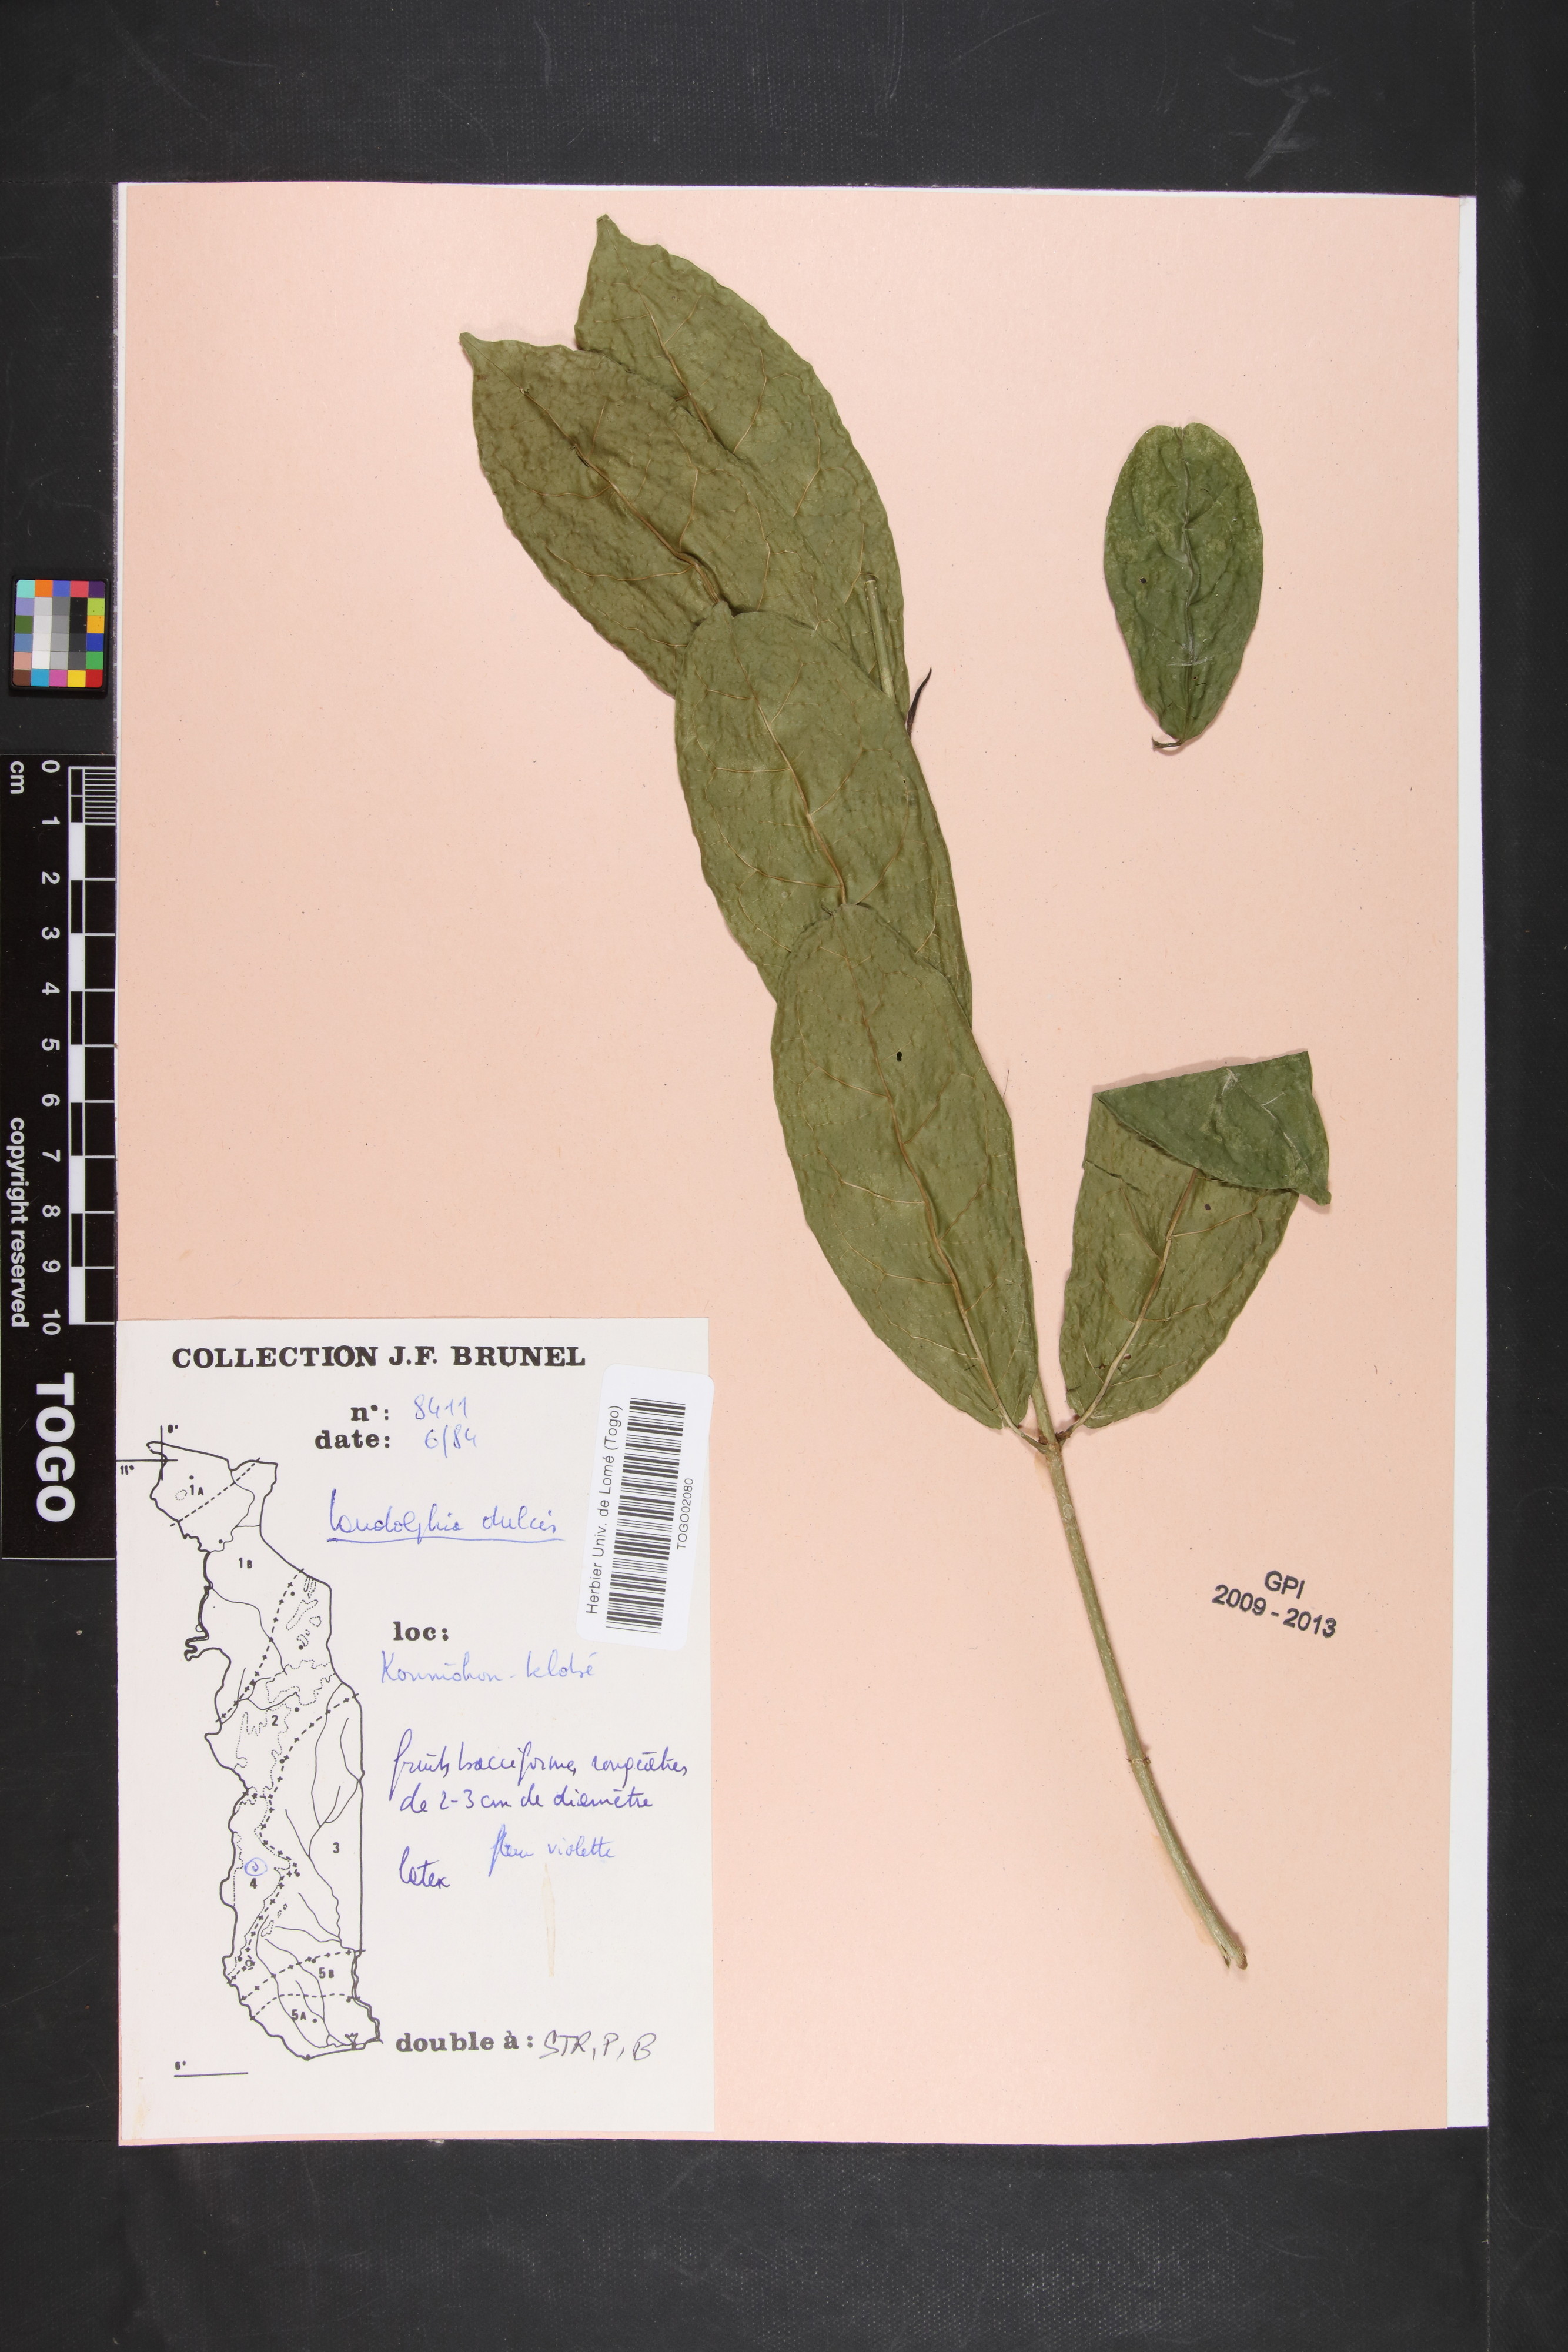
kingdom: Plantae
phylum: Tracheophyta
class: Magnoliopsida
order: Gentianales
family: Apocynaceae
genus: Landolphia
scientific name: Landolphia dulcis
